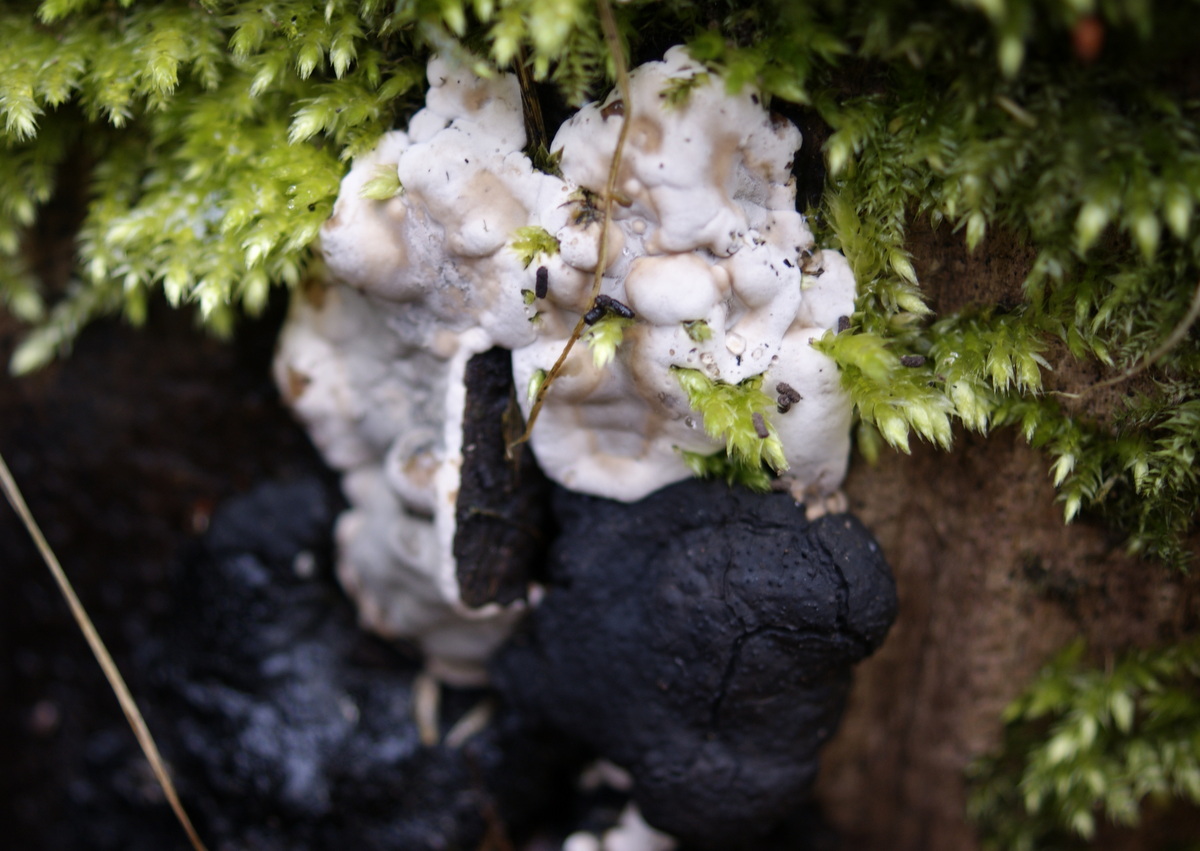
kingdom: Fungi
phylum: Ascomycota
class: Sordariomycetes
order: Xylariales
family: Xylariaceae
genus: Kretzschmaria
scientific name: Kretzschmaria deusta
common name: stor kulsvamp
